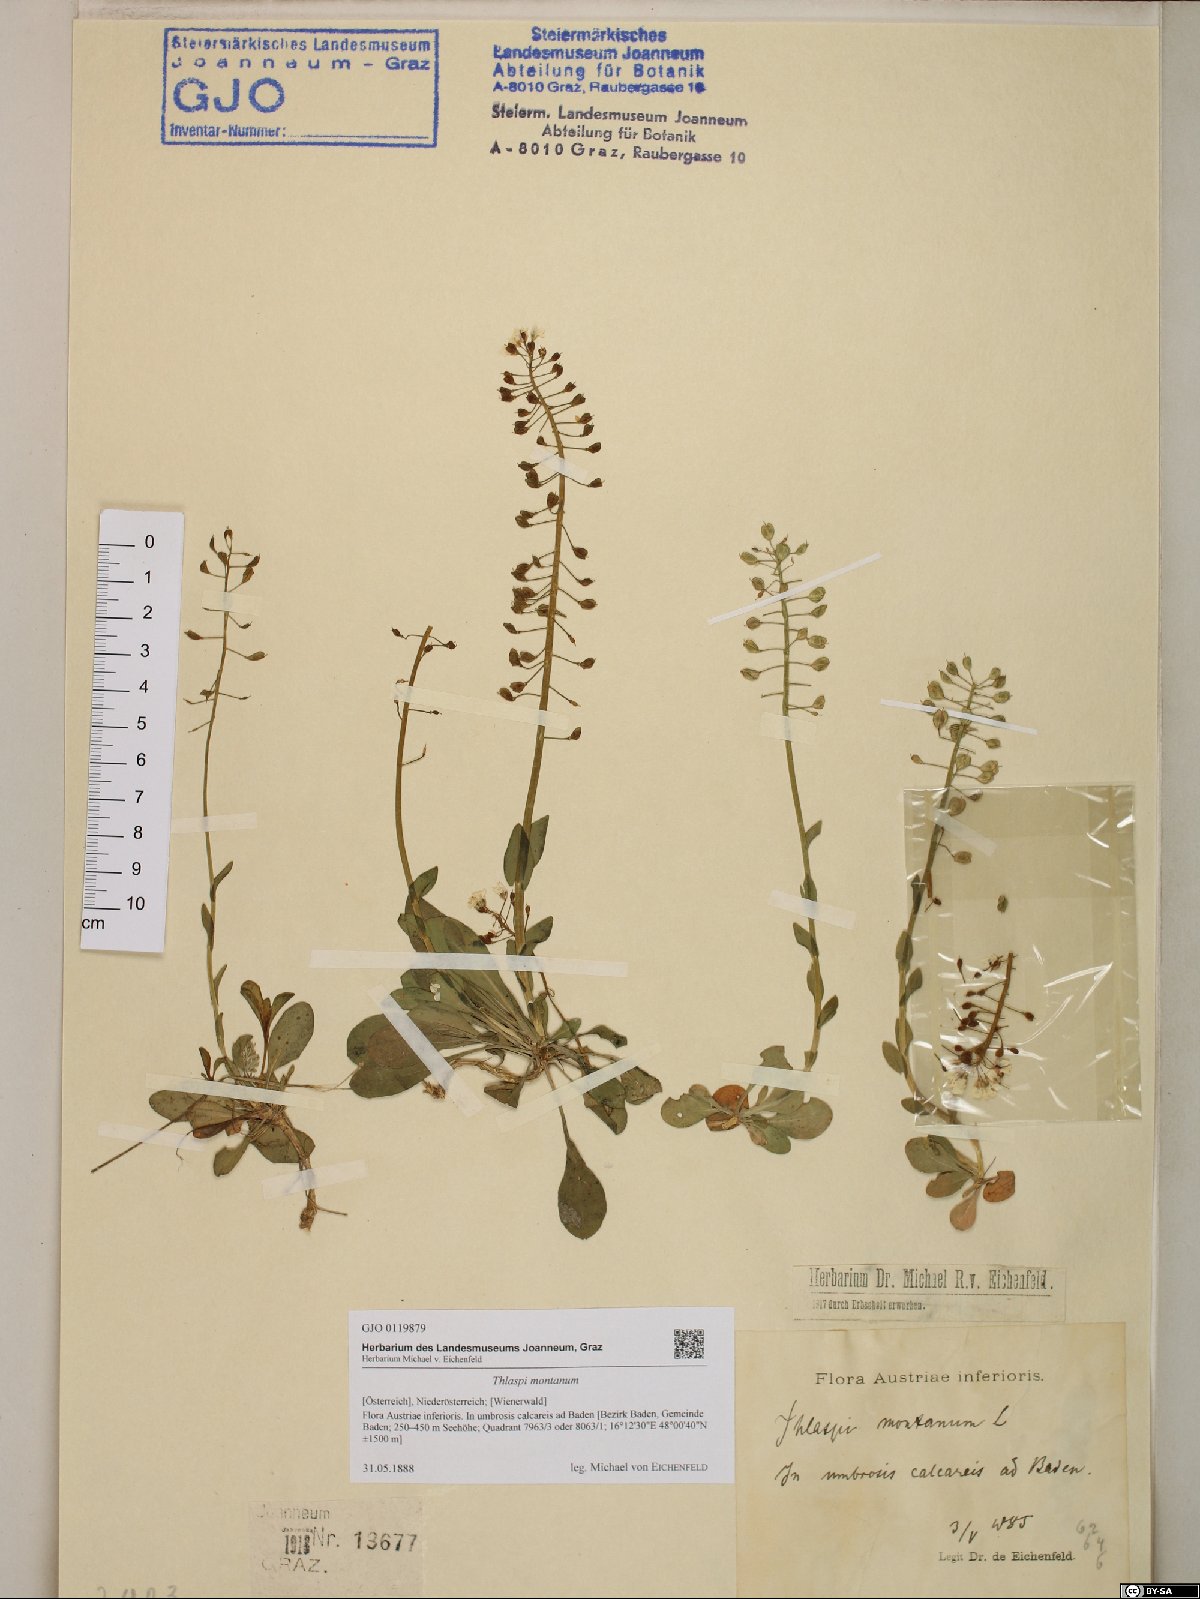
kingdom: Plantae
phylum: Tracheophyta
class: Magnoliopsida
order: Brassicales
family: Brassicaceae
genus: Noccaea
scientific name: Noccaea montana
